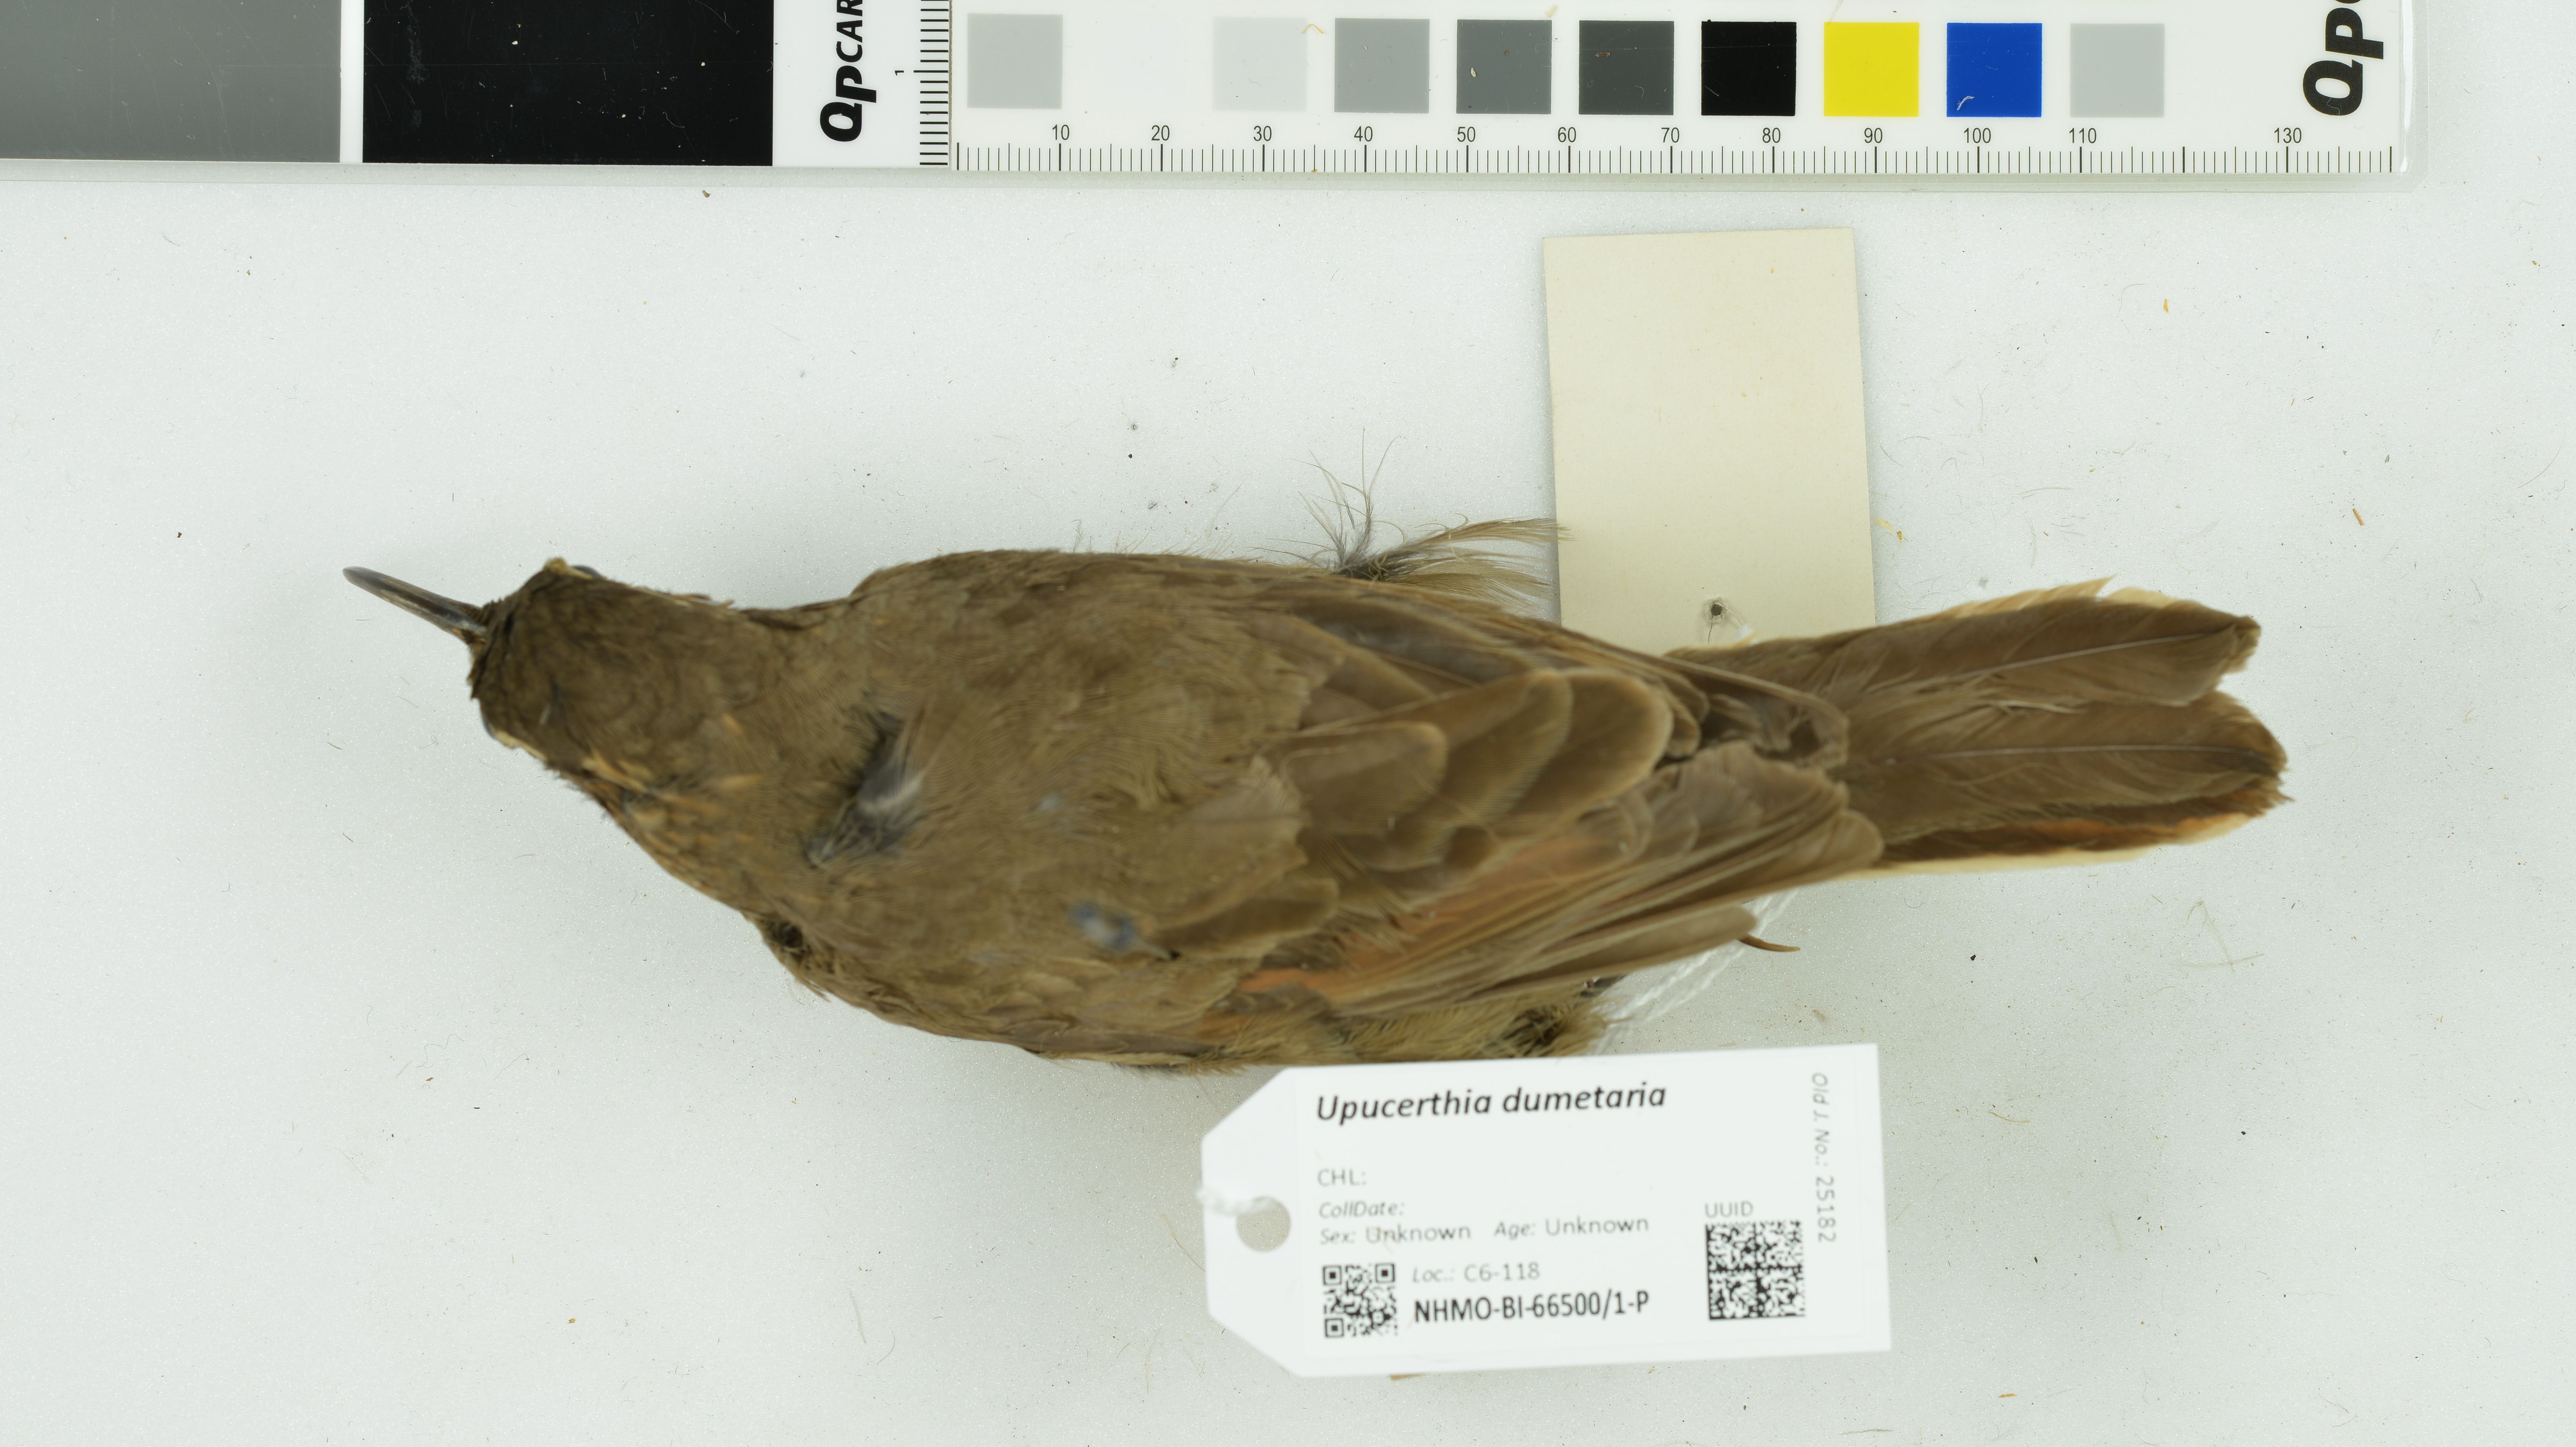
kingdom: Animalia
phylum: Chordata
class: Aves
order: Passeriformes
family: Furnariidae
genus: Upucerthia
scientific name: Upucerthia dumetaria
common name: Scale-throated earthcreeper
